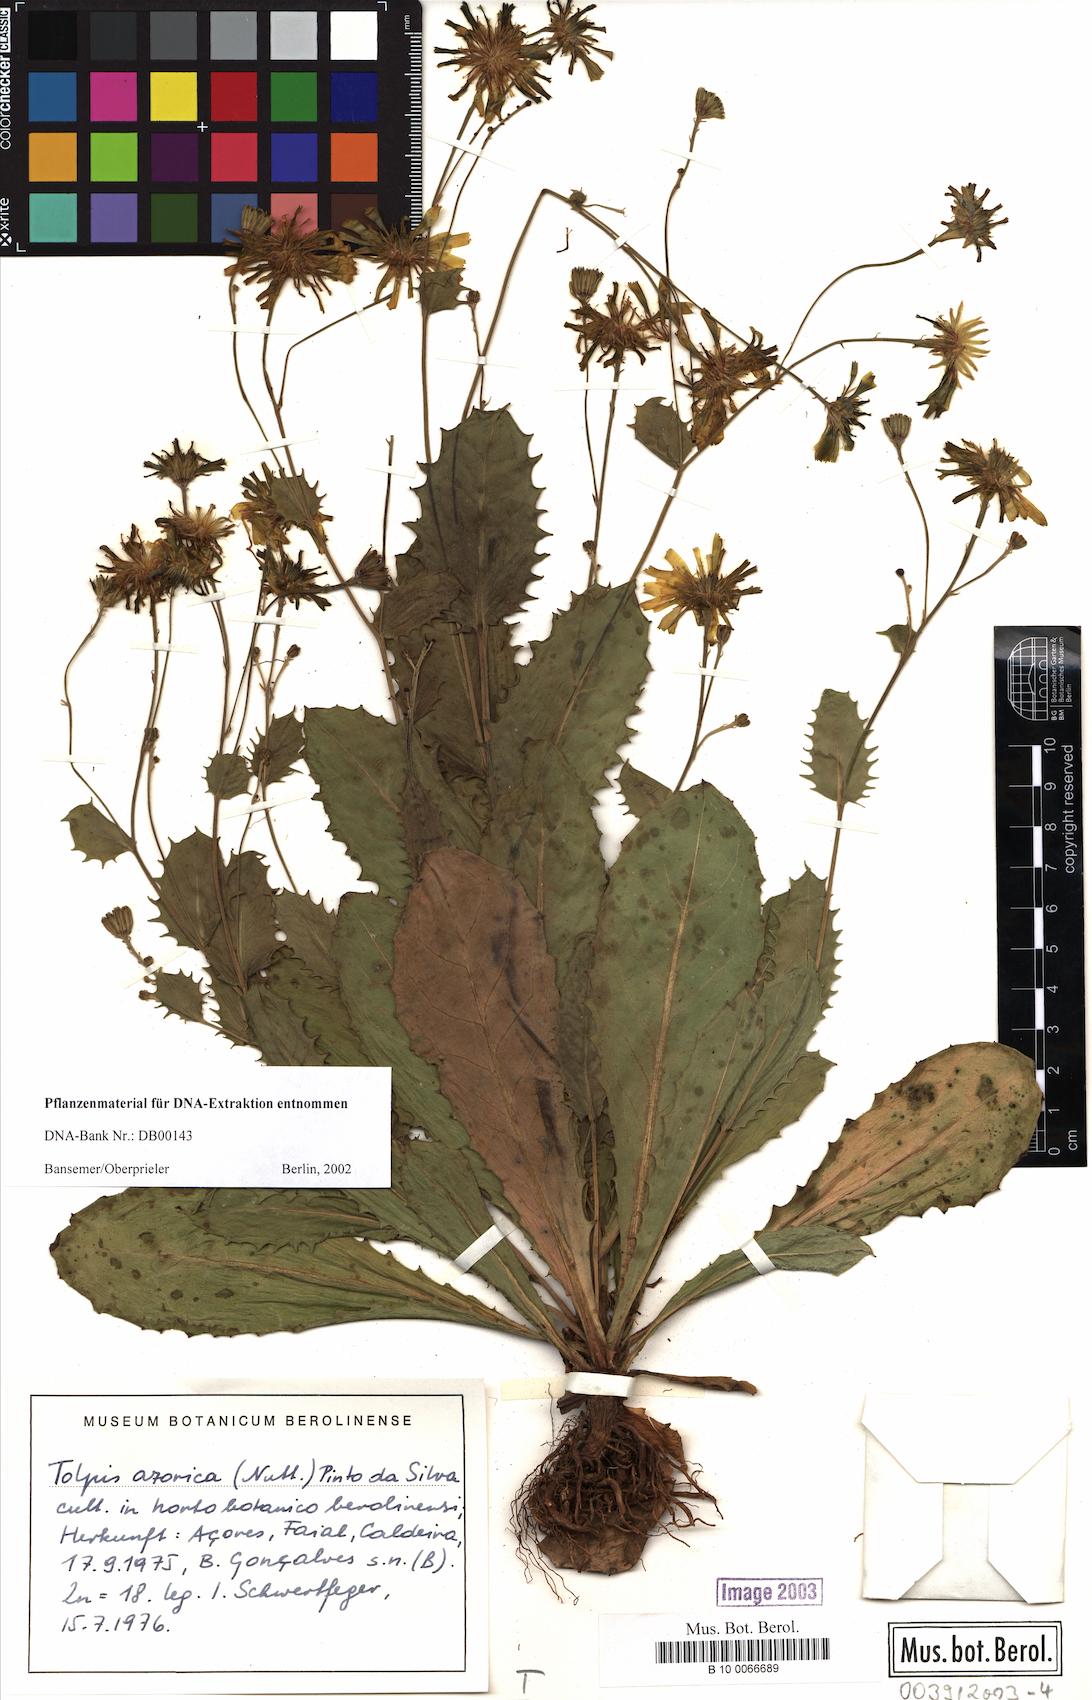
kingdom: Plantae
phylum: Tracheophyta
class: Magnoliopsida
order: Asterales
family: Asteraceae
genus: Tolpis
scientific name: Tolpis azorica
